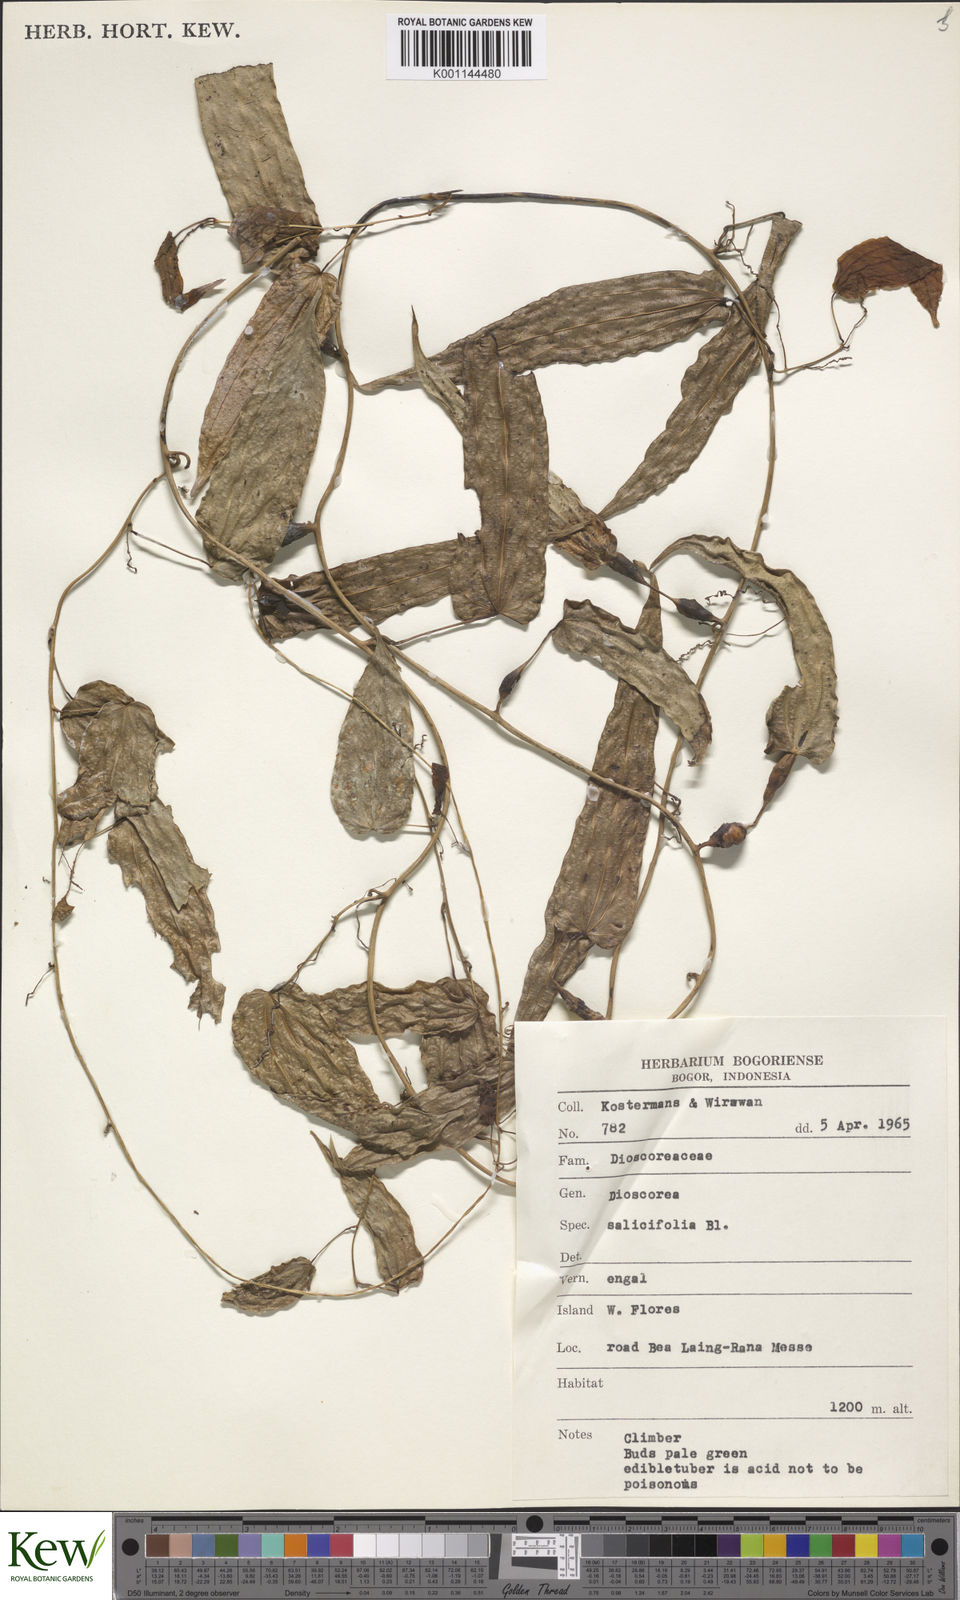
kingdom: Plantae
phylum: Tracheophyta
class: Liliopsida
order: Dioscoreales
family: Dioscoreaceae
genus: Dioscorea
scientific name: Dioscorea salicifolia
